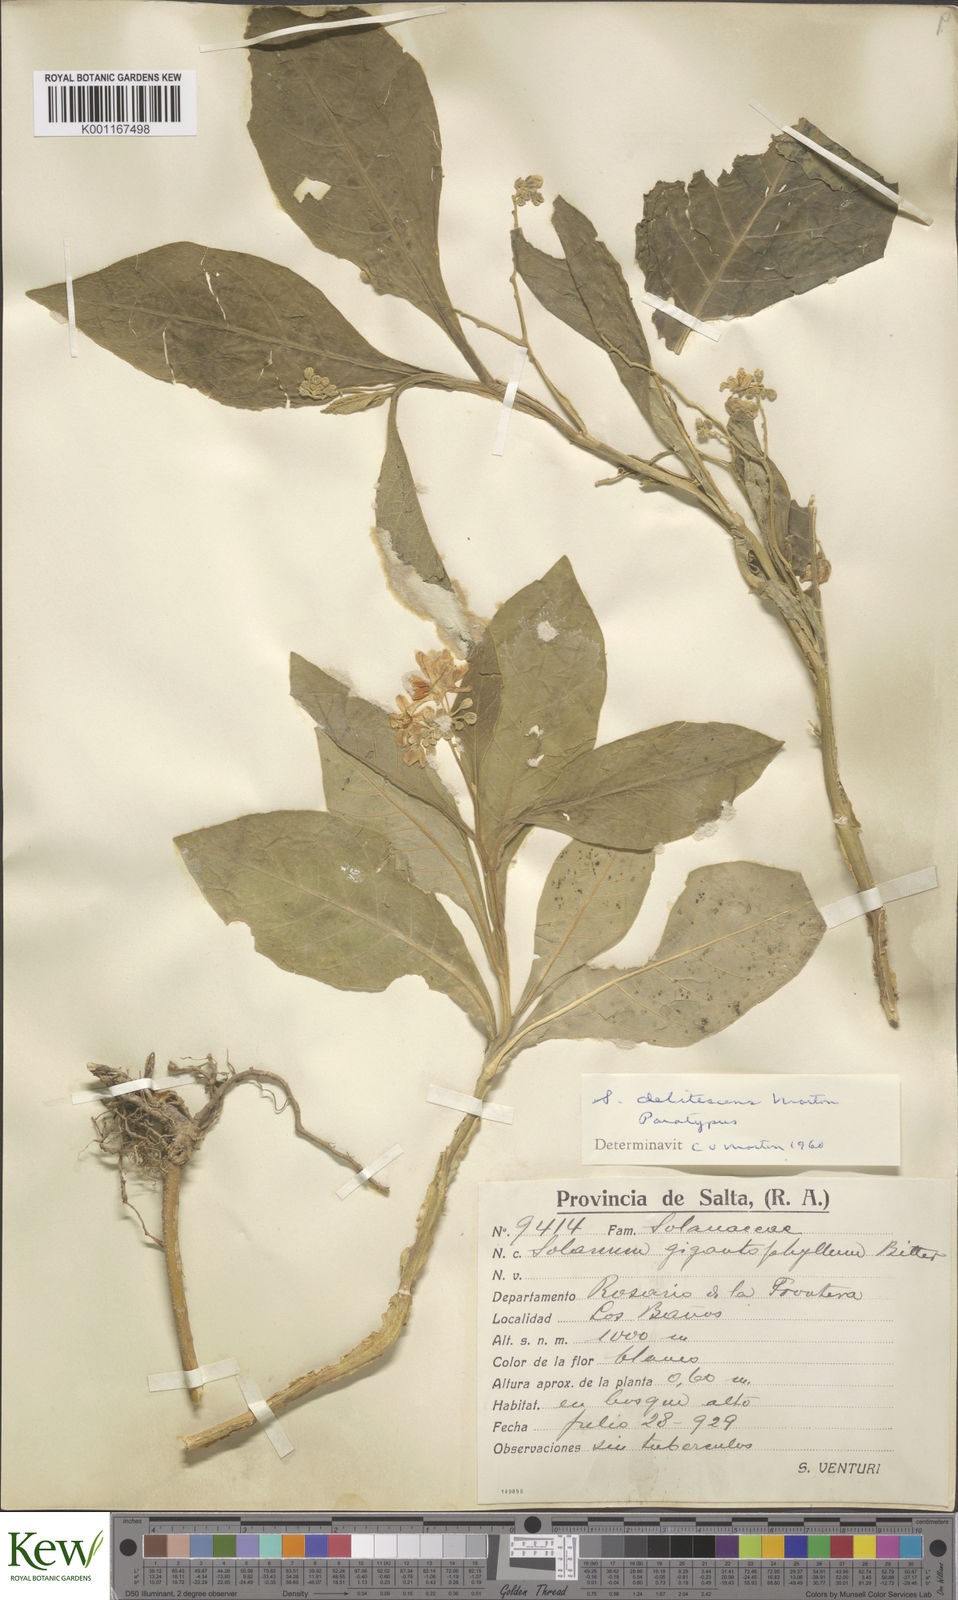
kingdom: Plantae
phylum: Tracheophyta
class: Magnoliopsida
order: Solanales
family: Solanaceae
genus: Solanum
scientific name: Solanum delitescens
